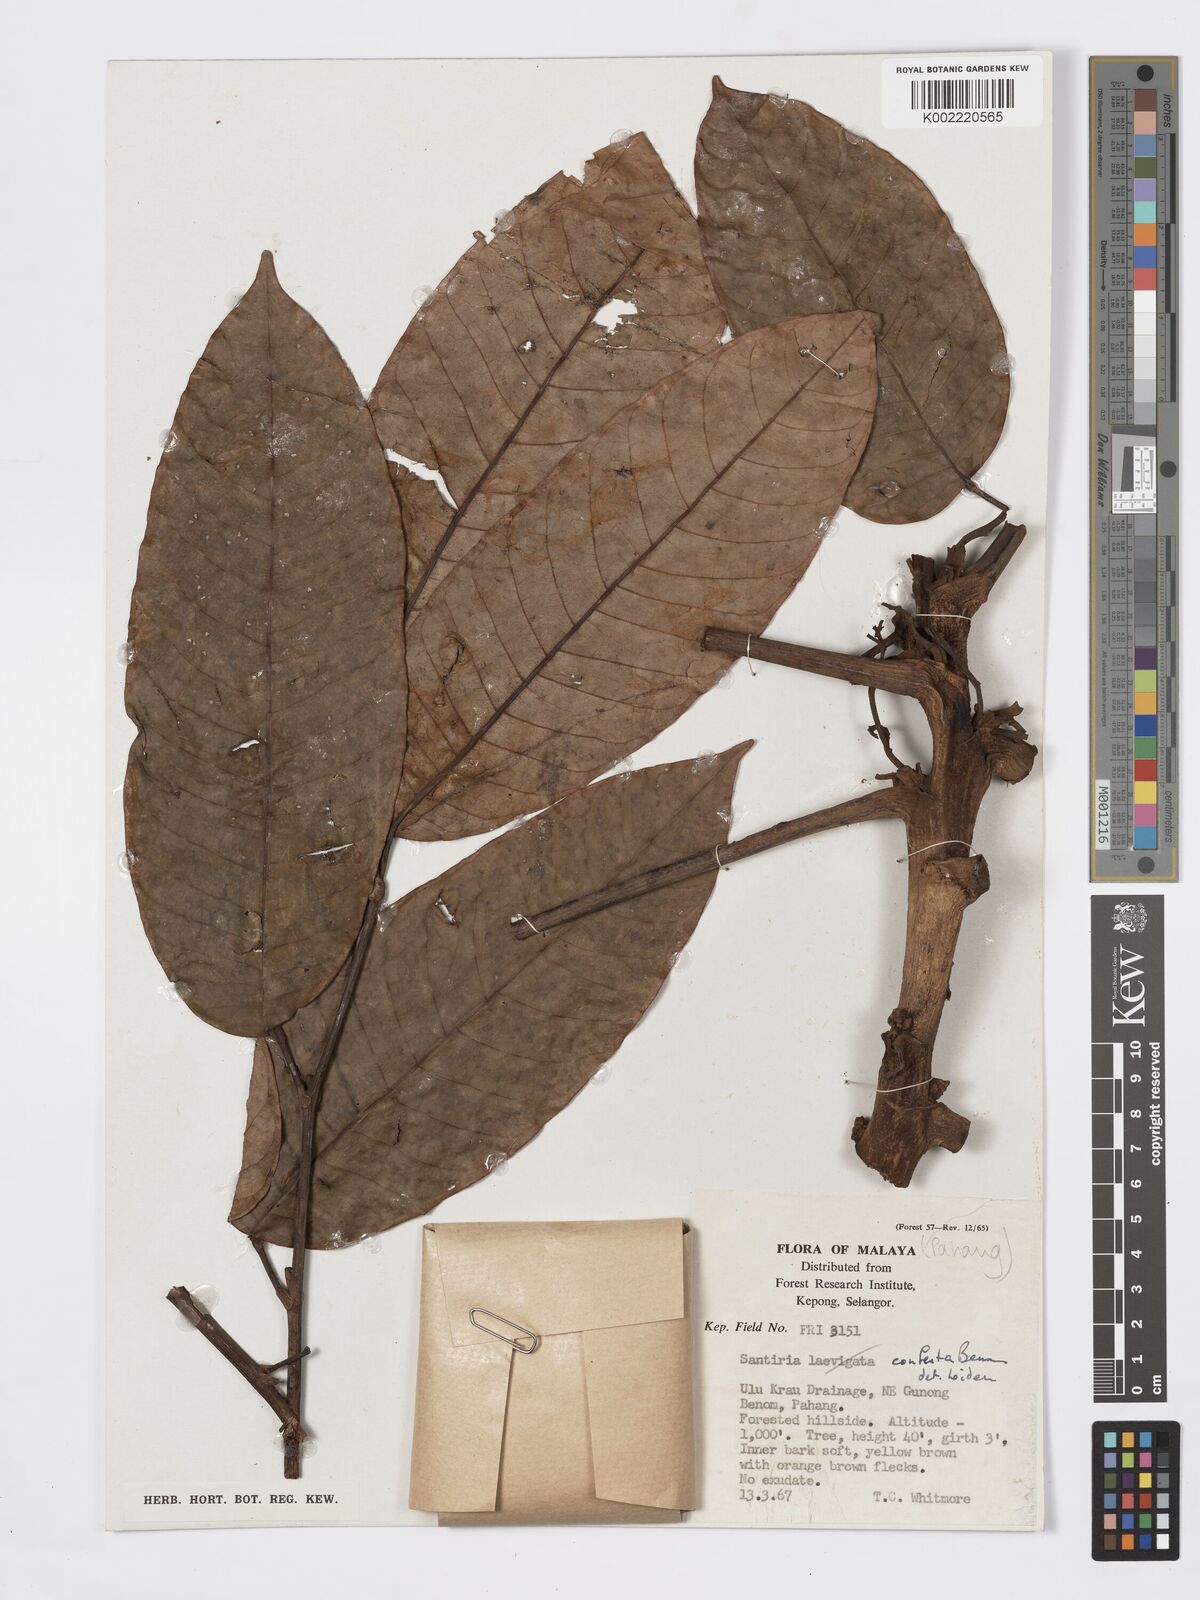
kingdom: Plantae
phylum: Tracheophyta
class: Magnoliopsida
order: Sapindales
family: Burseraceae
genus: Santiria
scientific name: Santiria conferta
